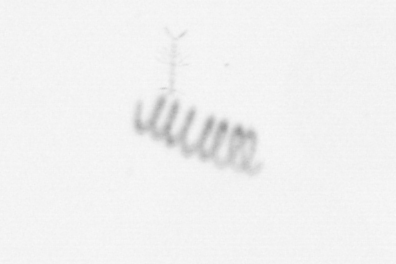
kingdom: Chromista
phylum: Ochrophyta
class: Bacillariophyceae
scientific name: Bacillariophyceae
